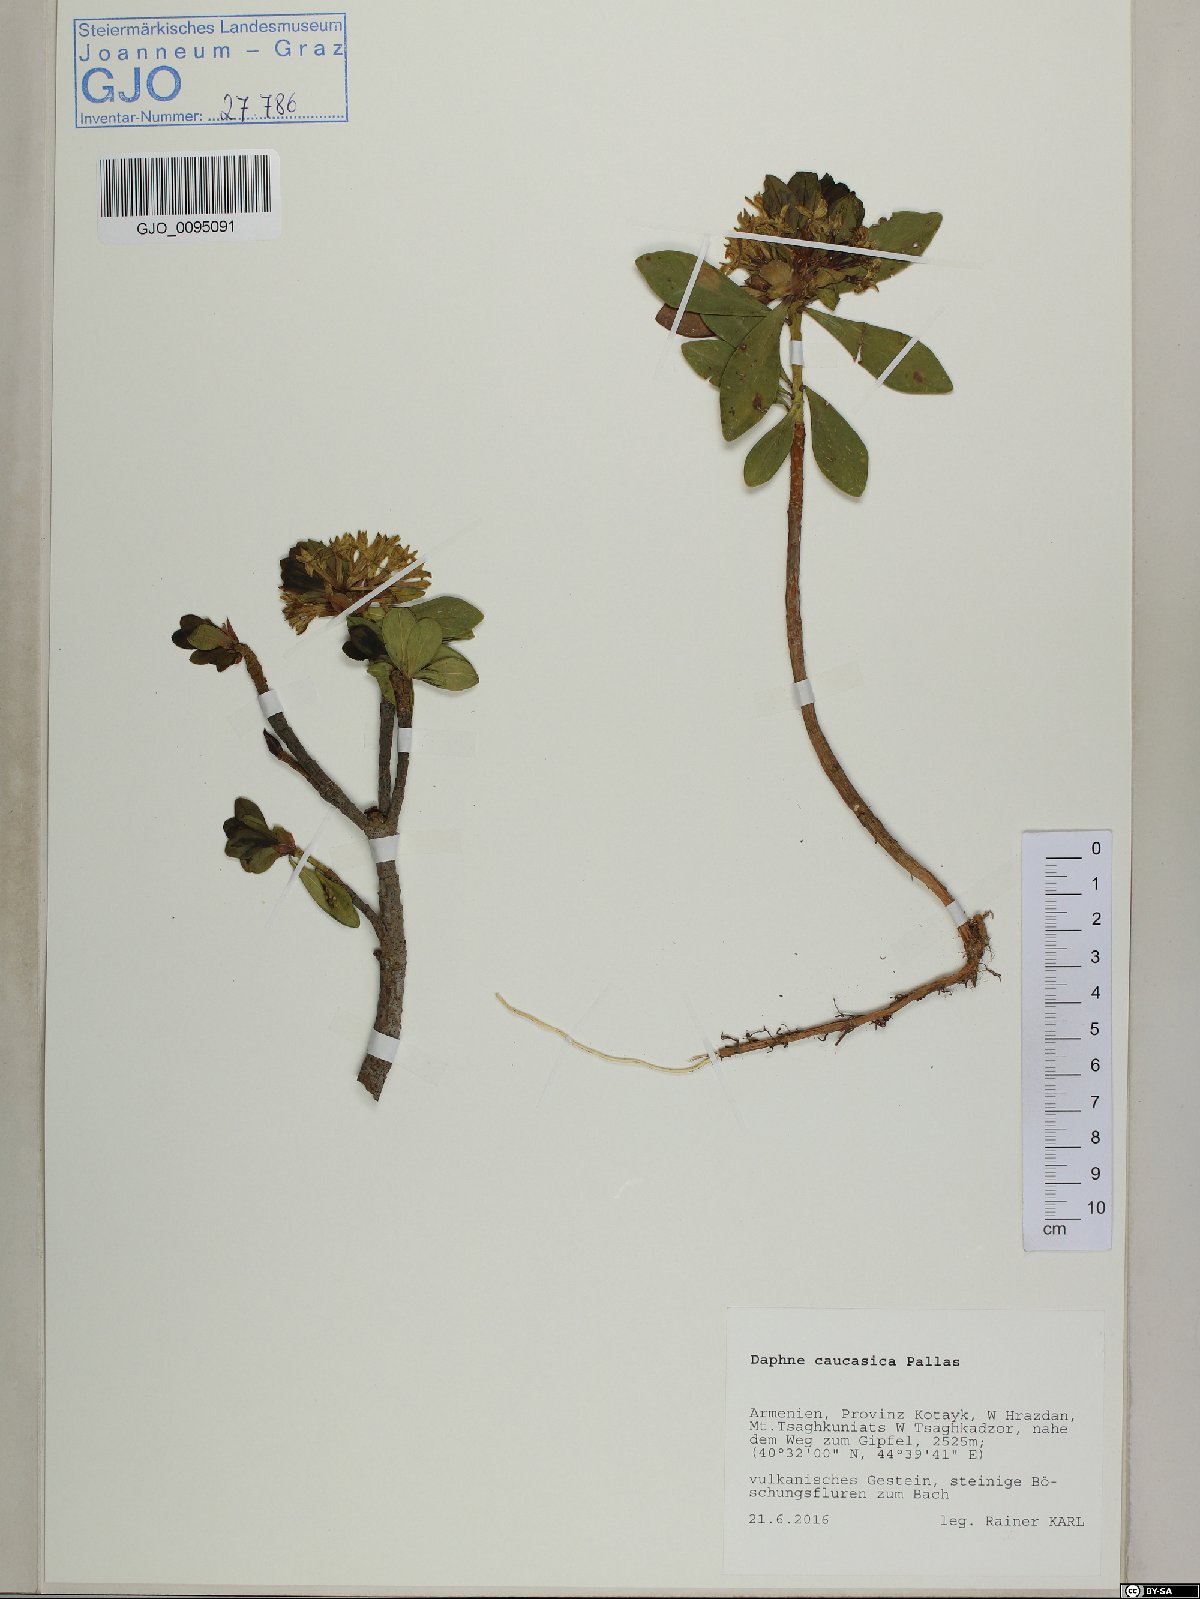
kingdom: Plantae
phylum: Tracheophyta
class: Magnoliopsida
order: Malvales
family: Thymelaeaceae
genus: Daphne
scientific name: Daphne caucasica
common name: Caucasian daphne
